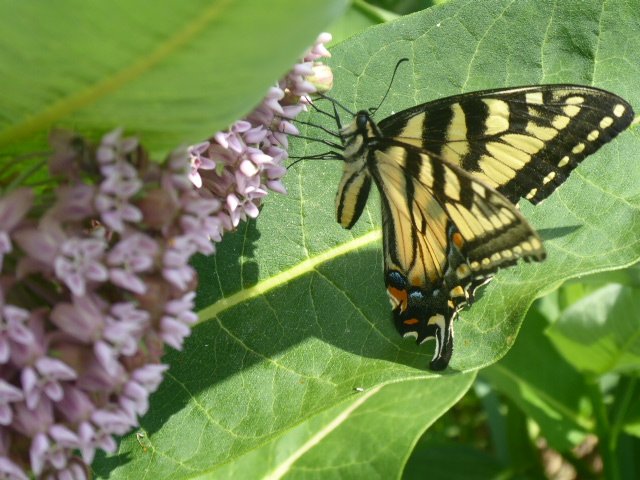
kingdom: Animalia
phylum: Arthropoda
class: Insecta
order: Lepidoptera
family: Papilionidae
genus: Pterourus
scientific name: Pterourus glaucus
